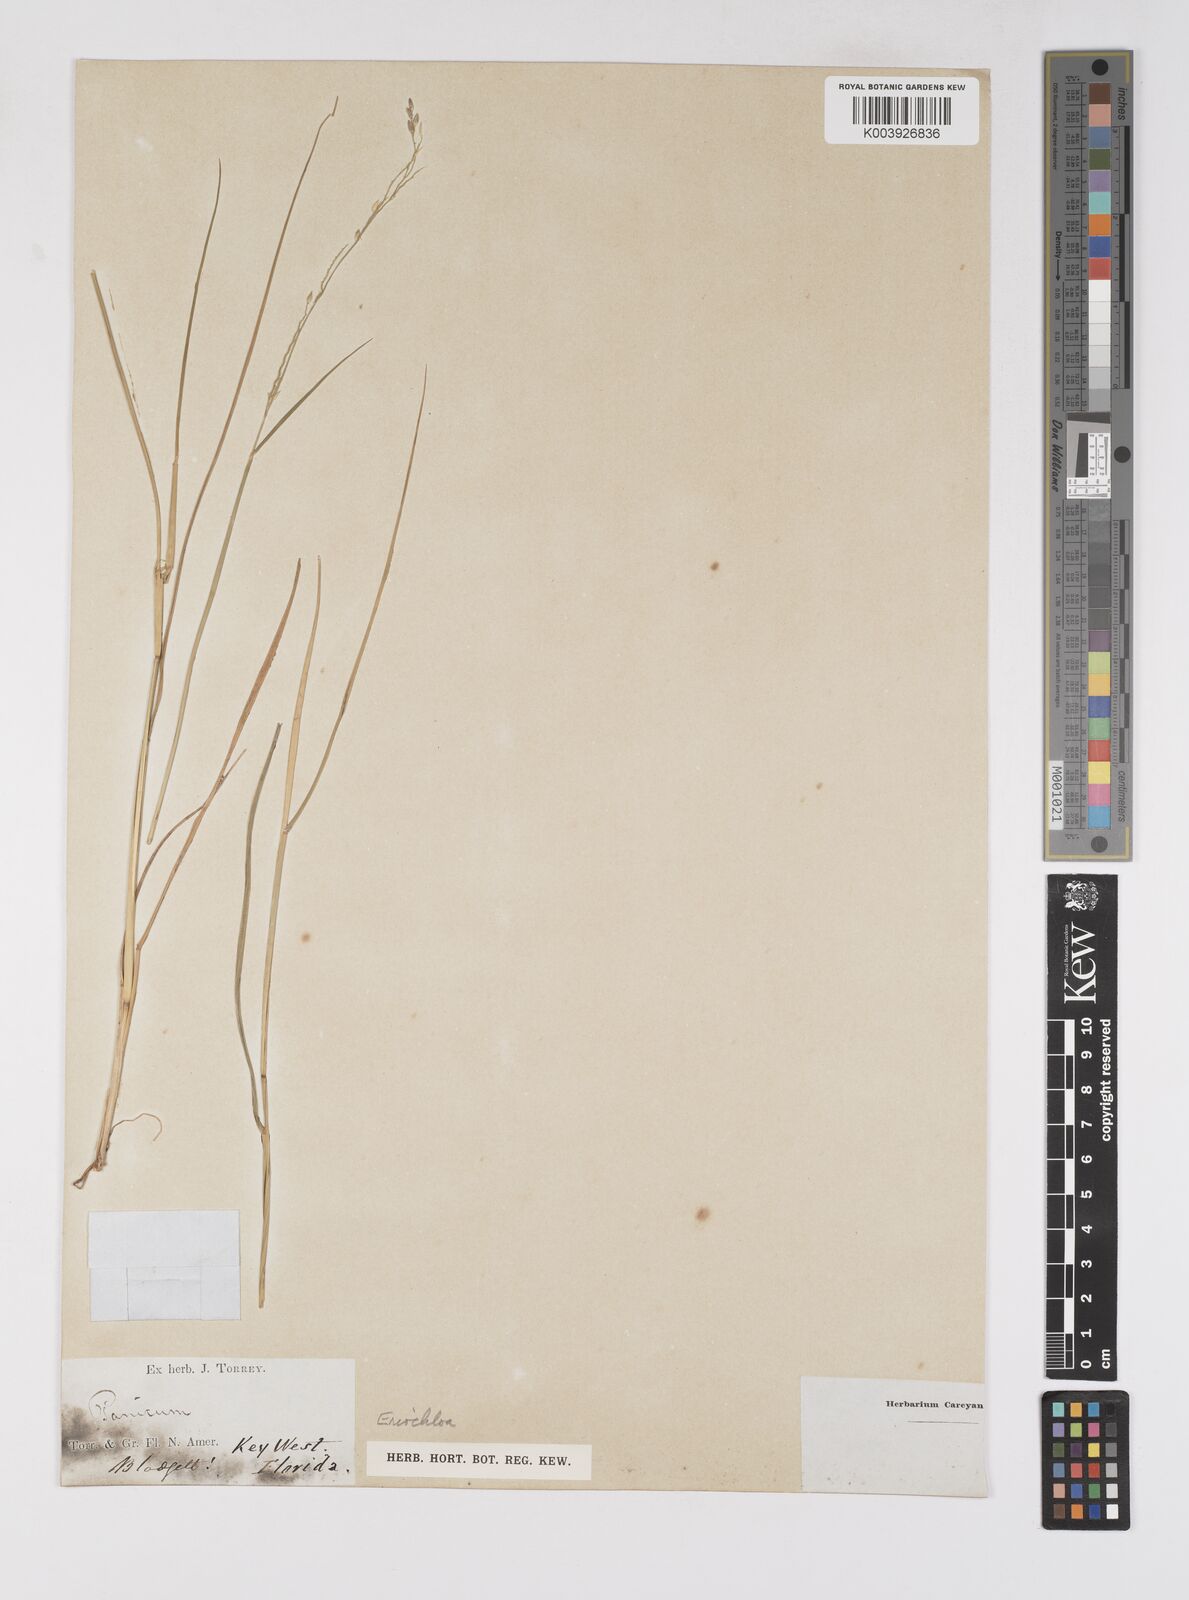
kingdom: Plantae
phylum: Tracheophyta
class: Liliopsida
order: Poales
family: Poaceae
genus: Eriochloa
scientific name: Eriochloa
